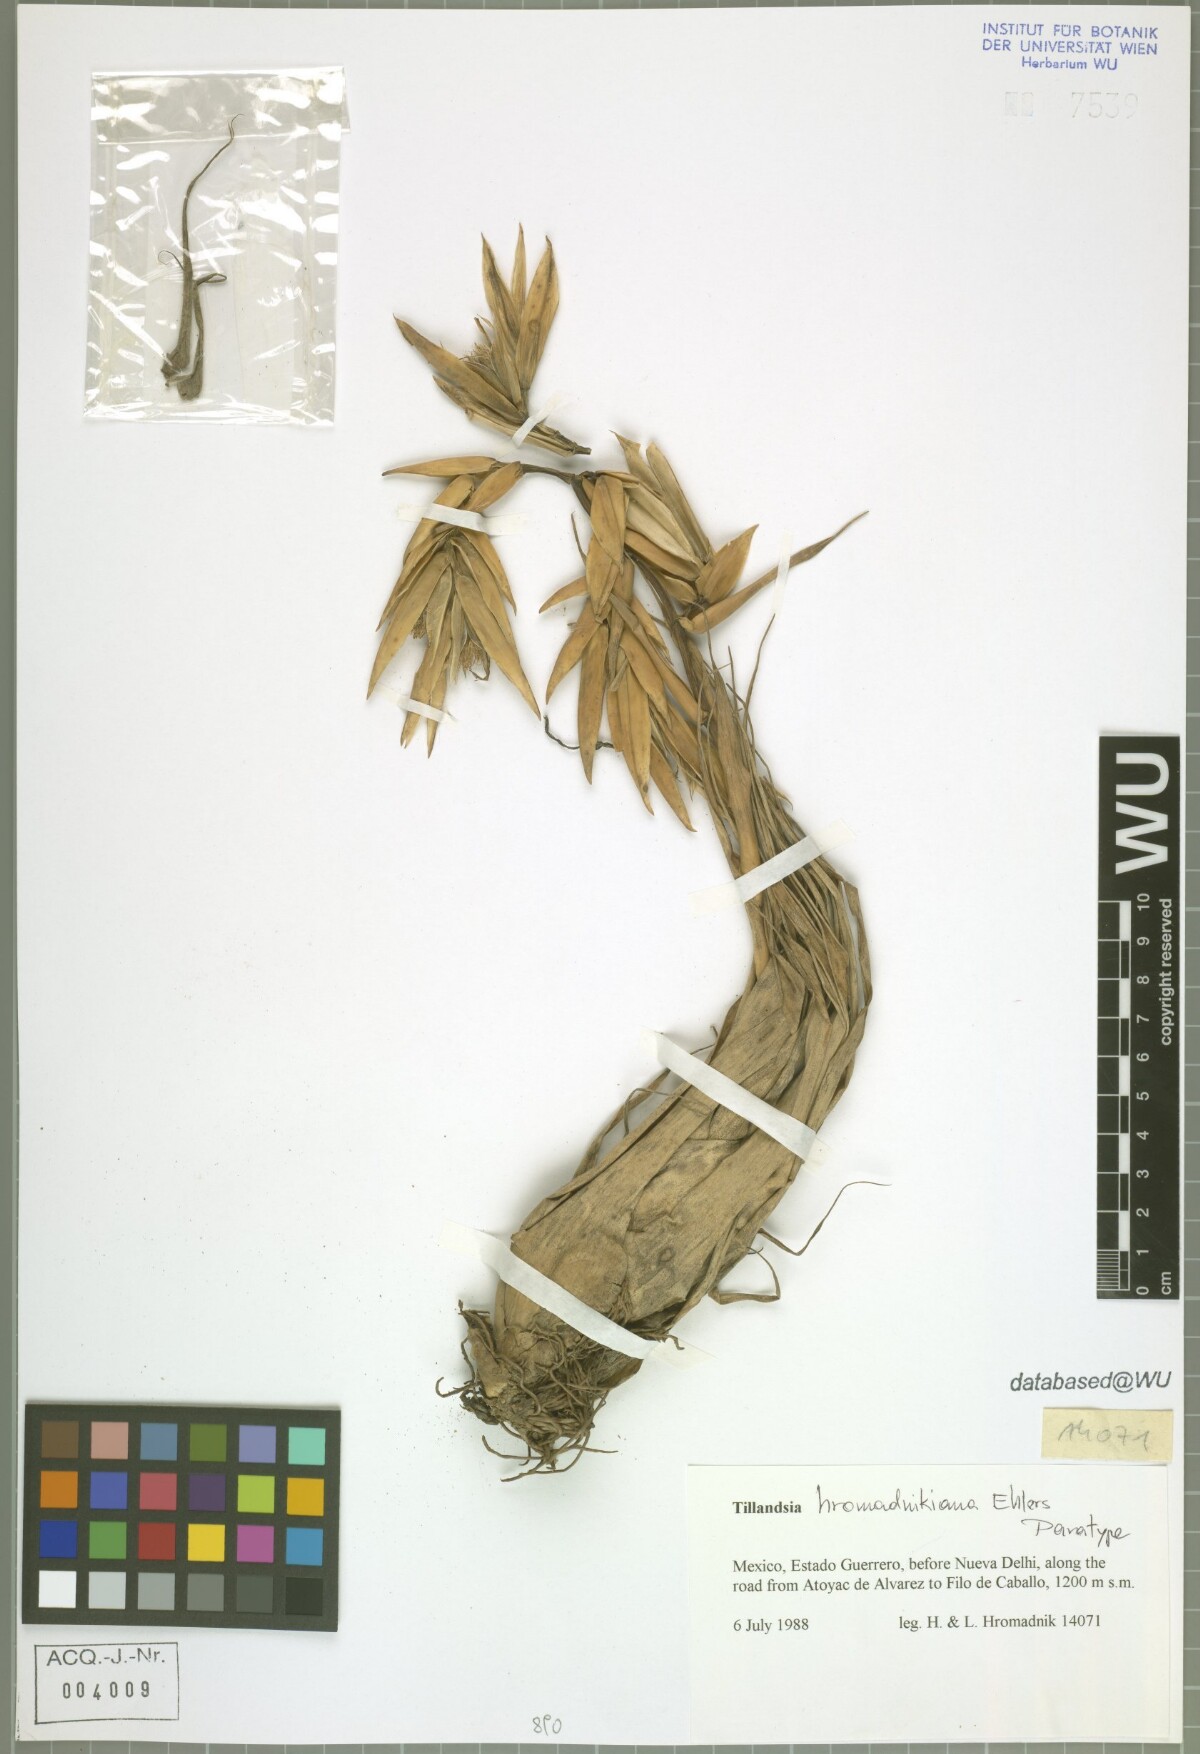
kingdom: Plantae
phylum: Tracheophyta
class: Liliopsida
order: Poales
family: Bromeliaceae
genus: Tillandsia
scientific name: Tillandsia prodigiosa
